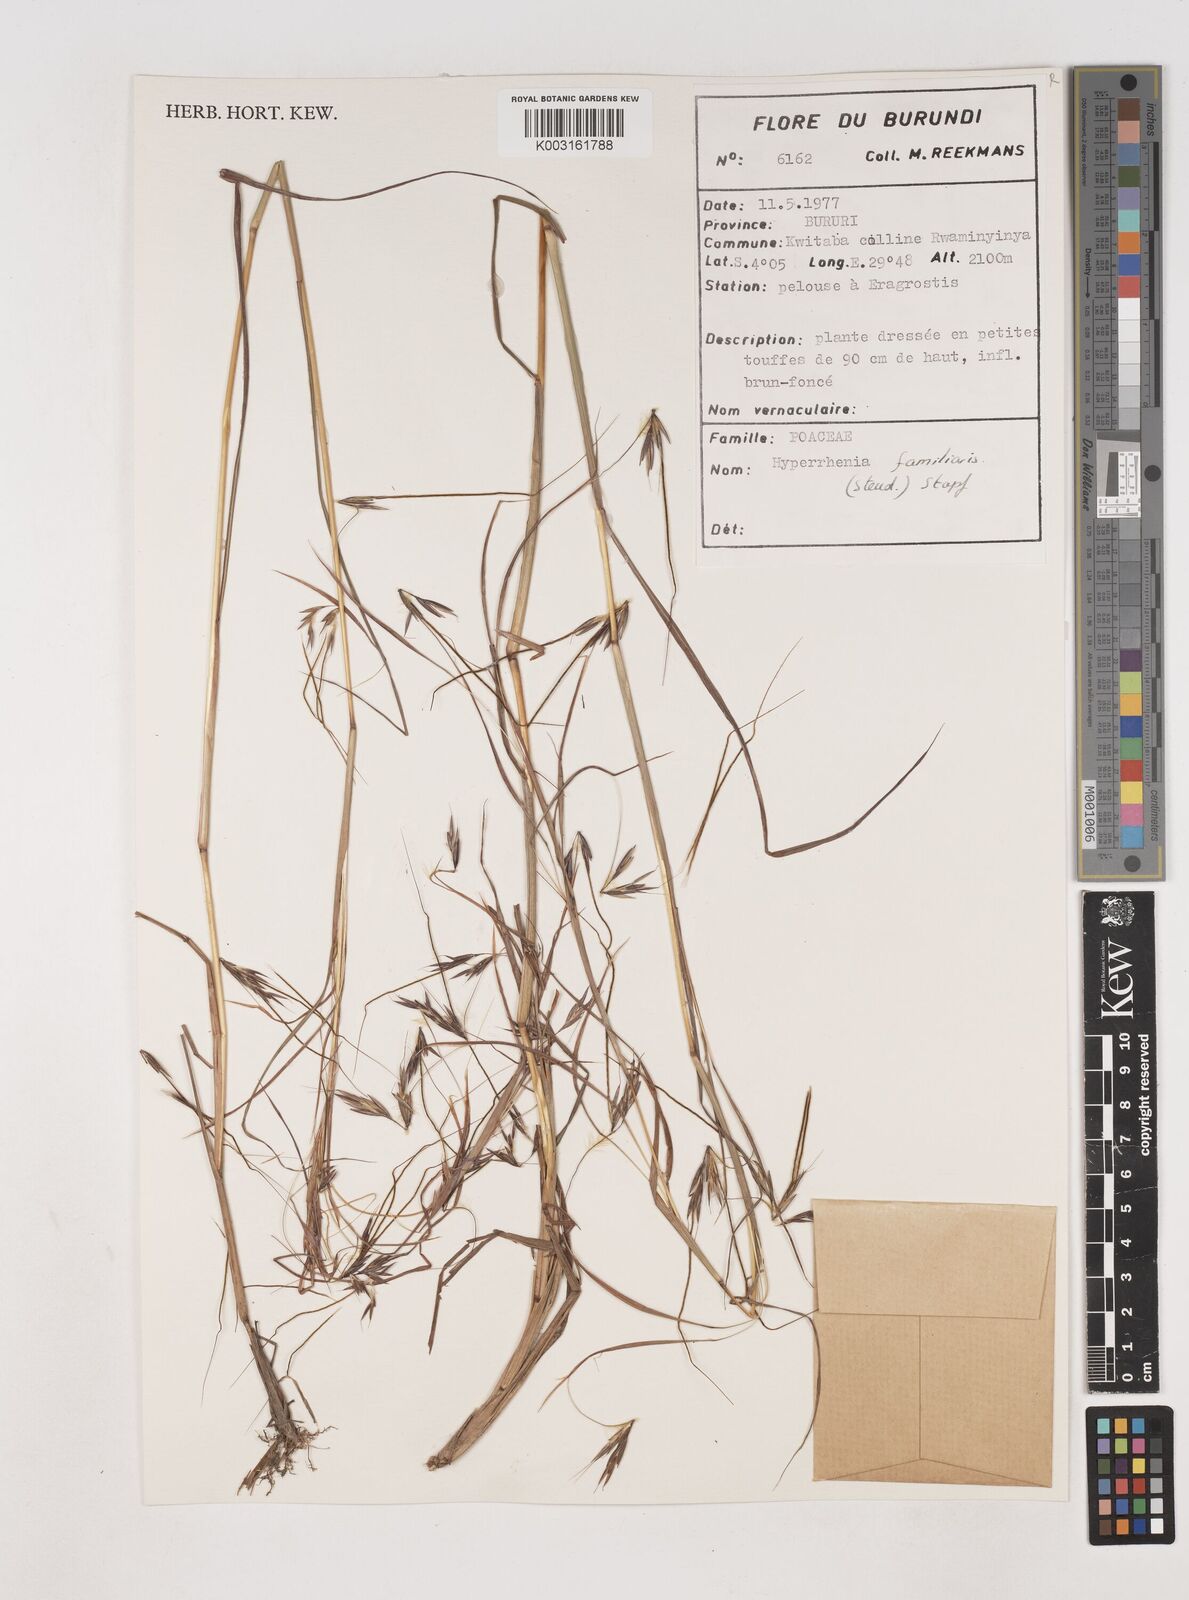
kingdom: Plantae
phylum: Tracheophyta
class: Liliopsida
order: Poales
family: Poaceae
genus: Hyparrhenia
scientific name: Hyparrhenia familiaris
